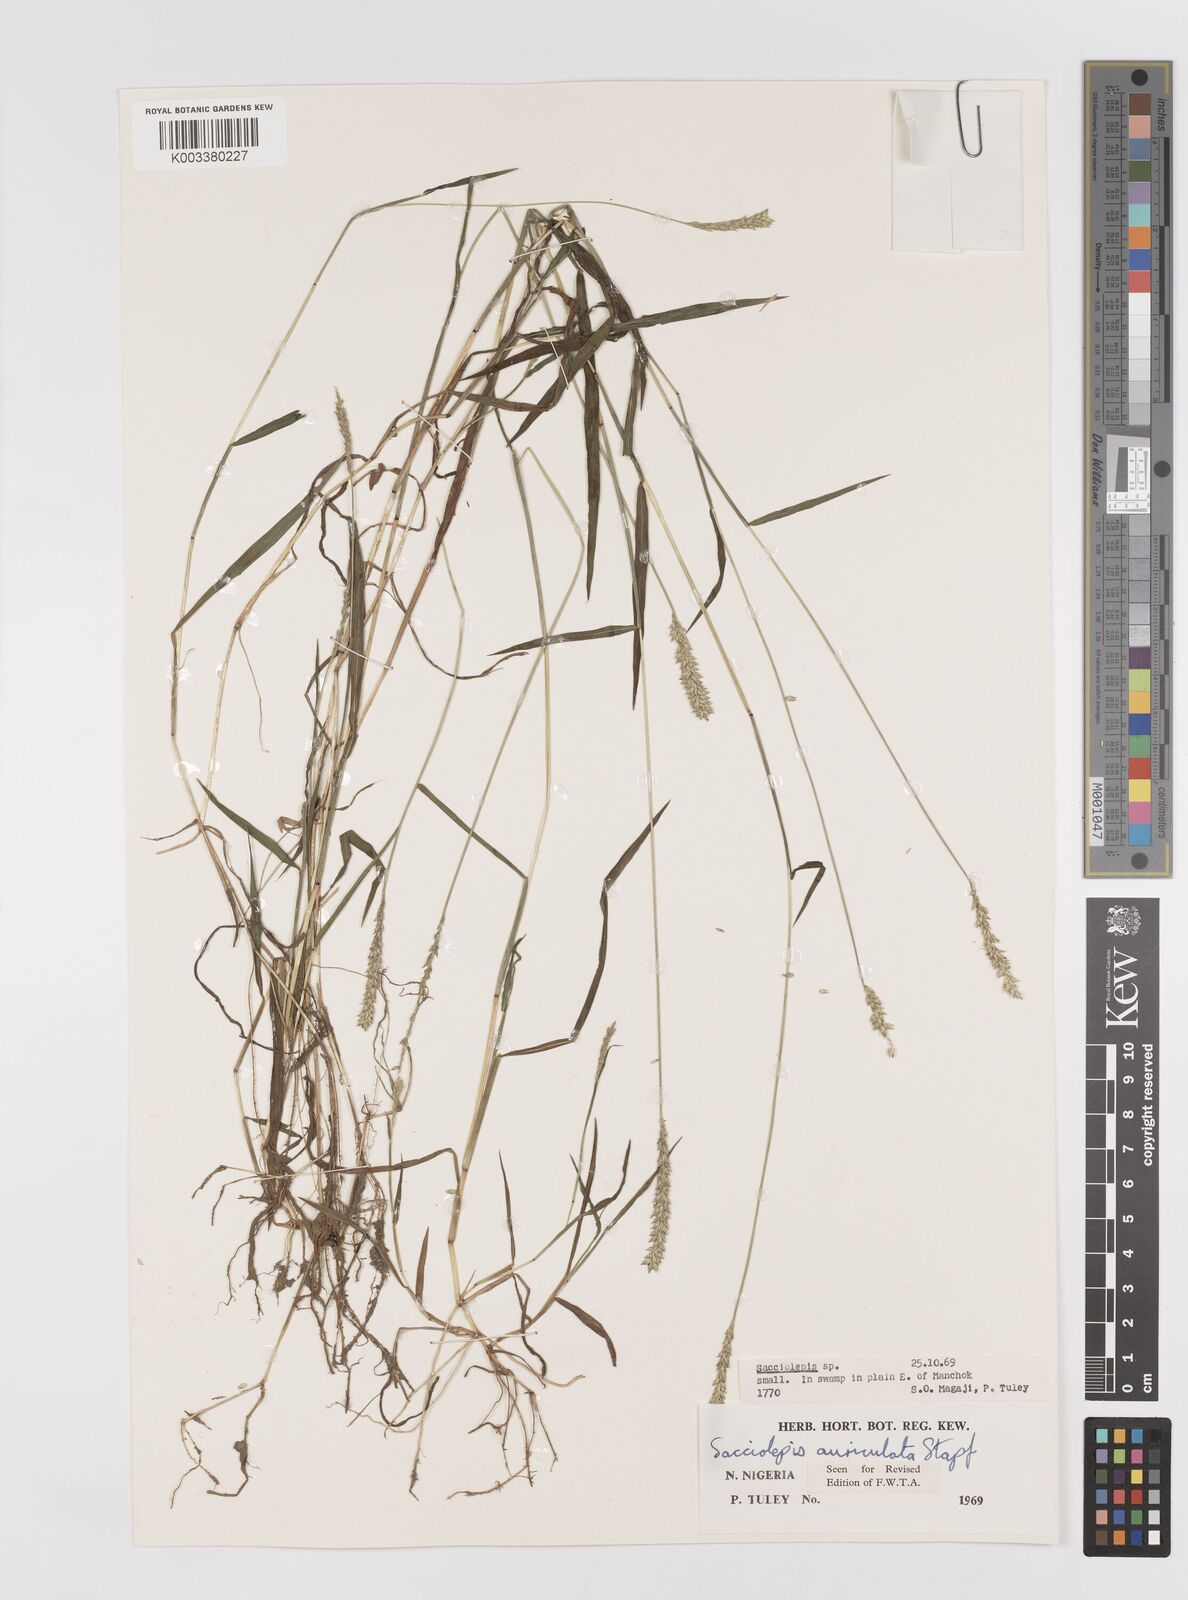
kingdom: Plantae
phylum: Tracheophyta
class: Liliopsida
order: Poales
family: Poaceae
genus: Sacciolepis
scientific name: Sacciolepis indica
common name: Glenwoodgrass
